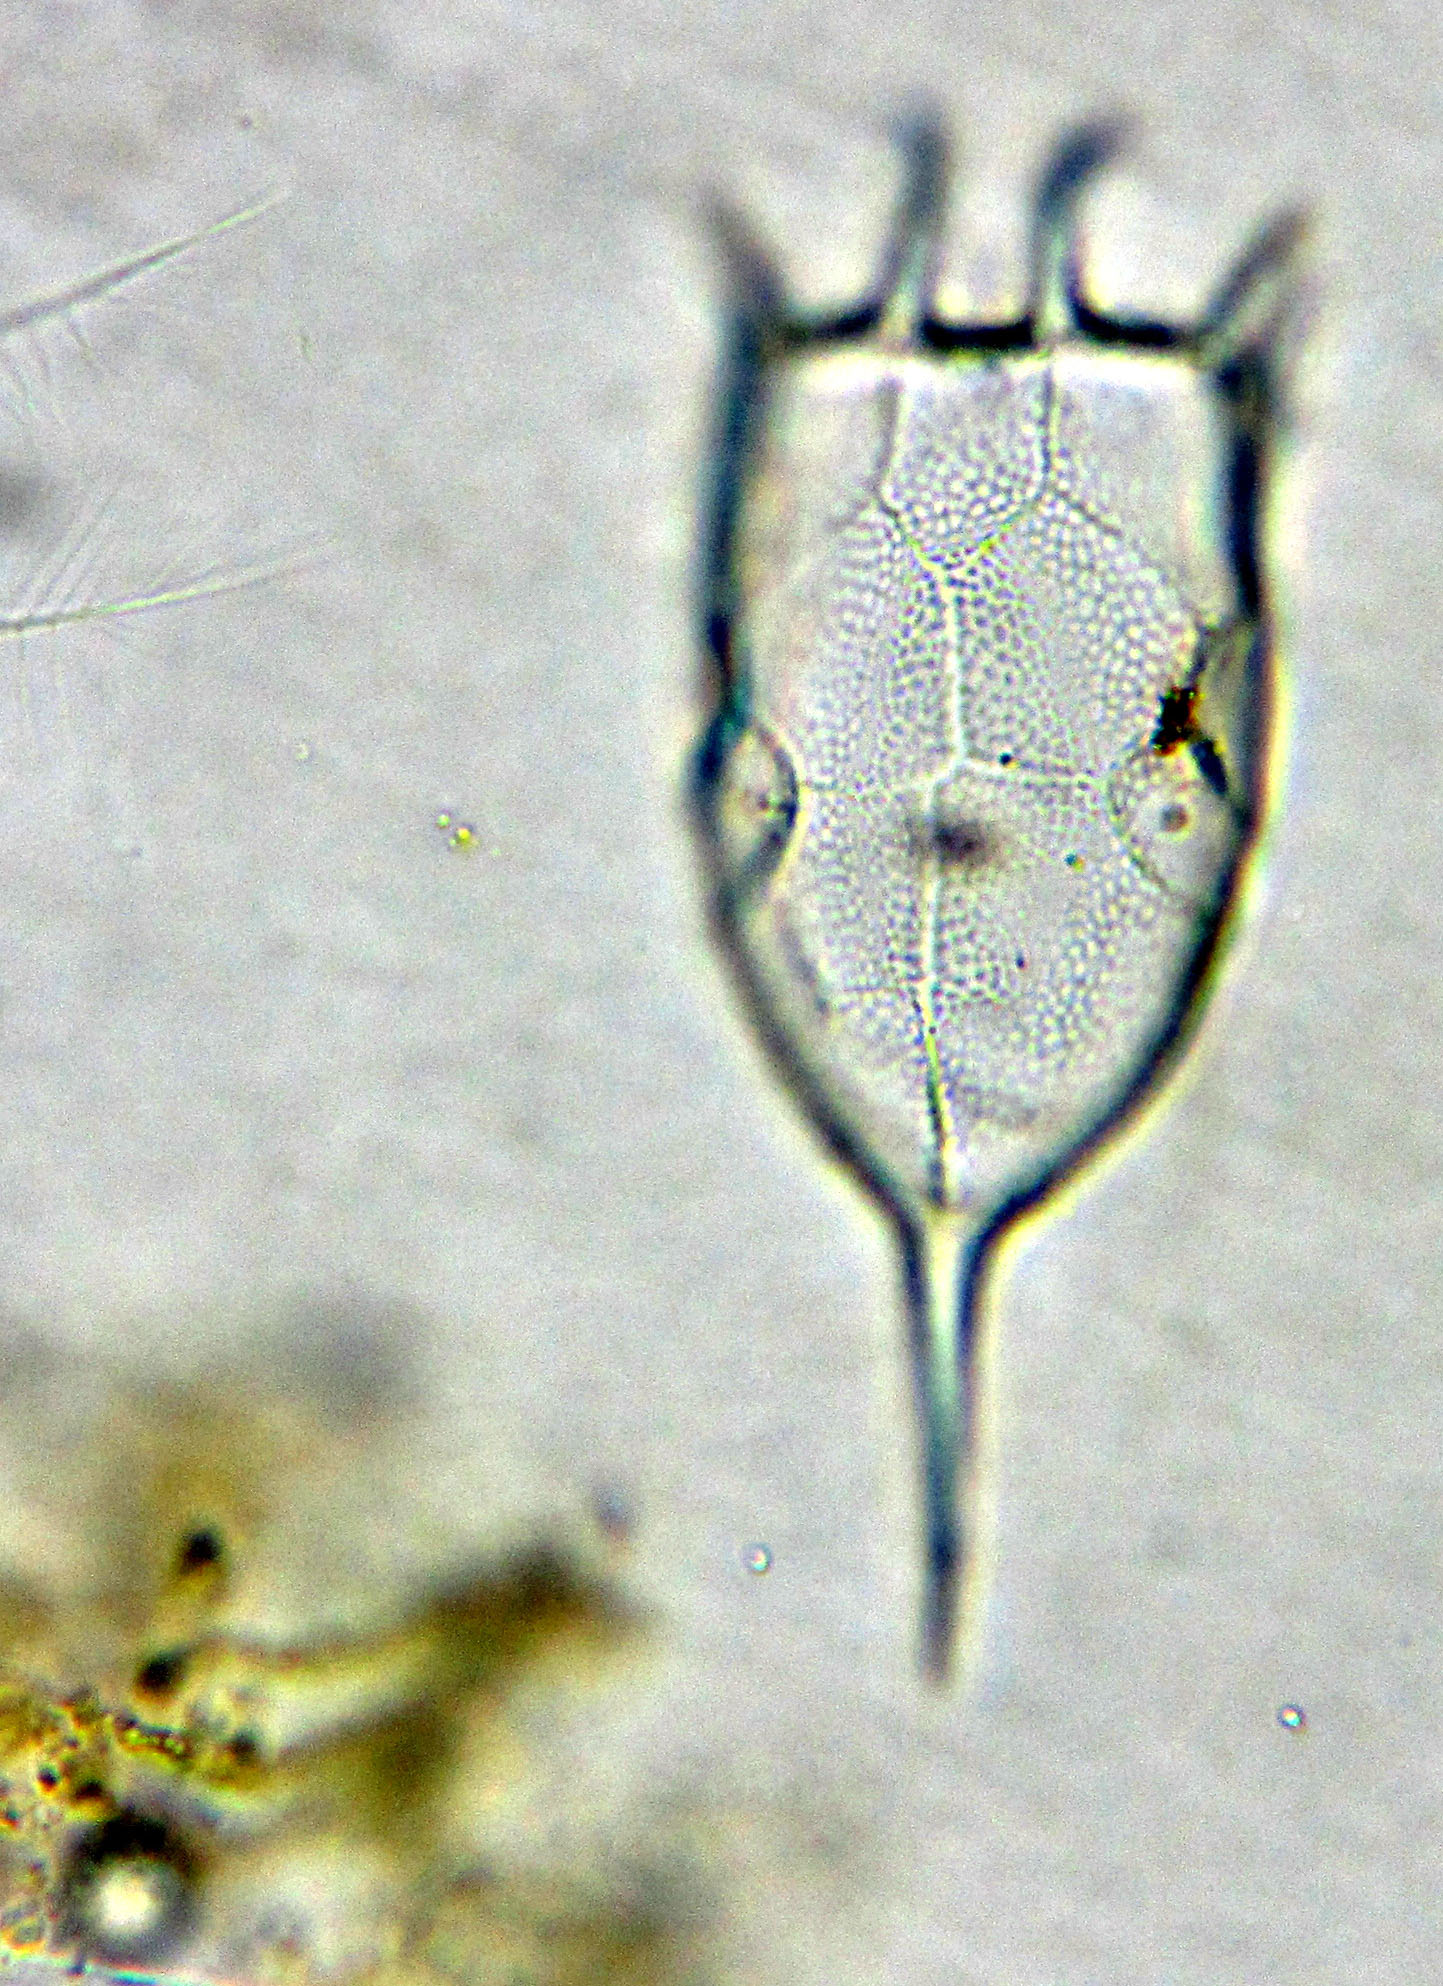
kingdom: Animalia
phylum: Rotifera
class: Eurotatoria
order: Ploima
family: Brachionidae
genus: Keratella
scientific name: Keratella cochlearis
